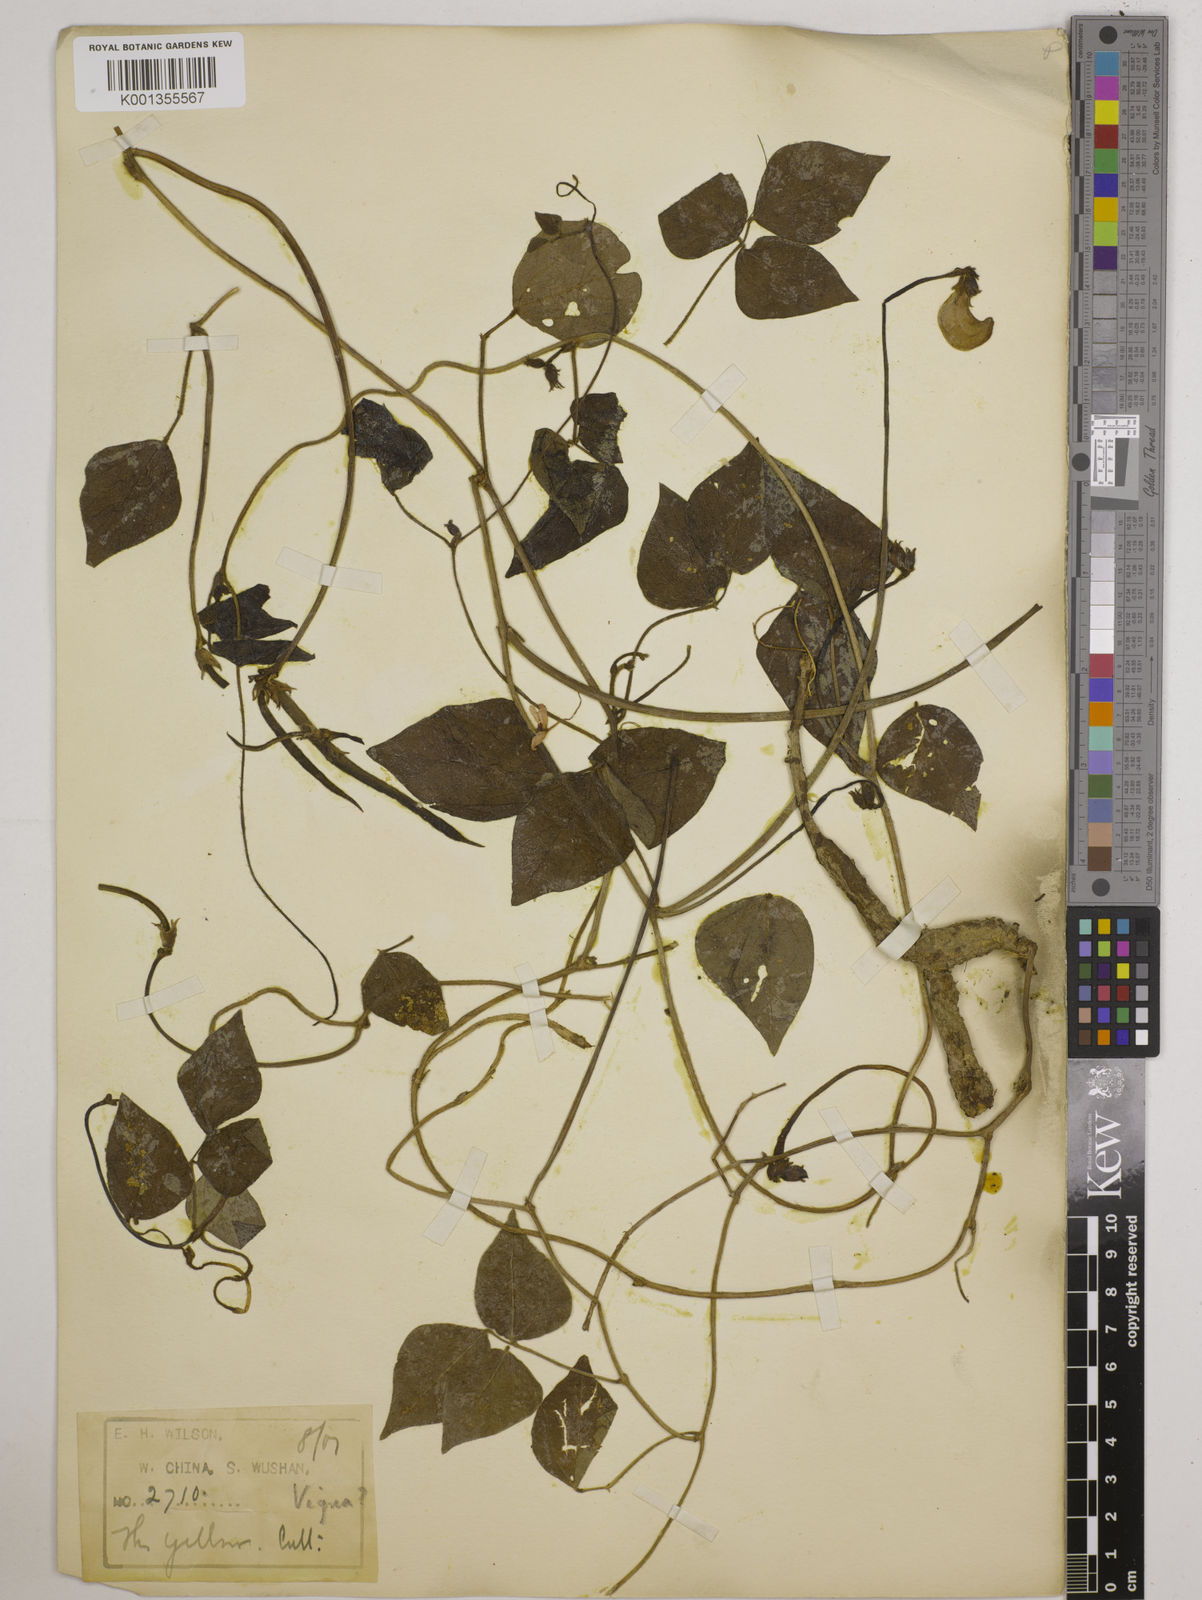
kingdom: Plantae
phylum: Tracheophyta
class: Magnoliopsida
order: Fabales
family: Fabaceae
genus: Vigna
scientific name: Vigna vexillata
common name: Zombi pea
